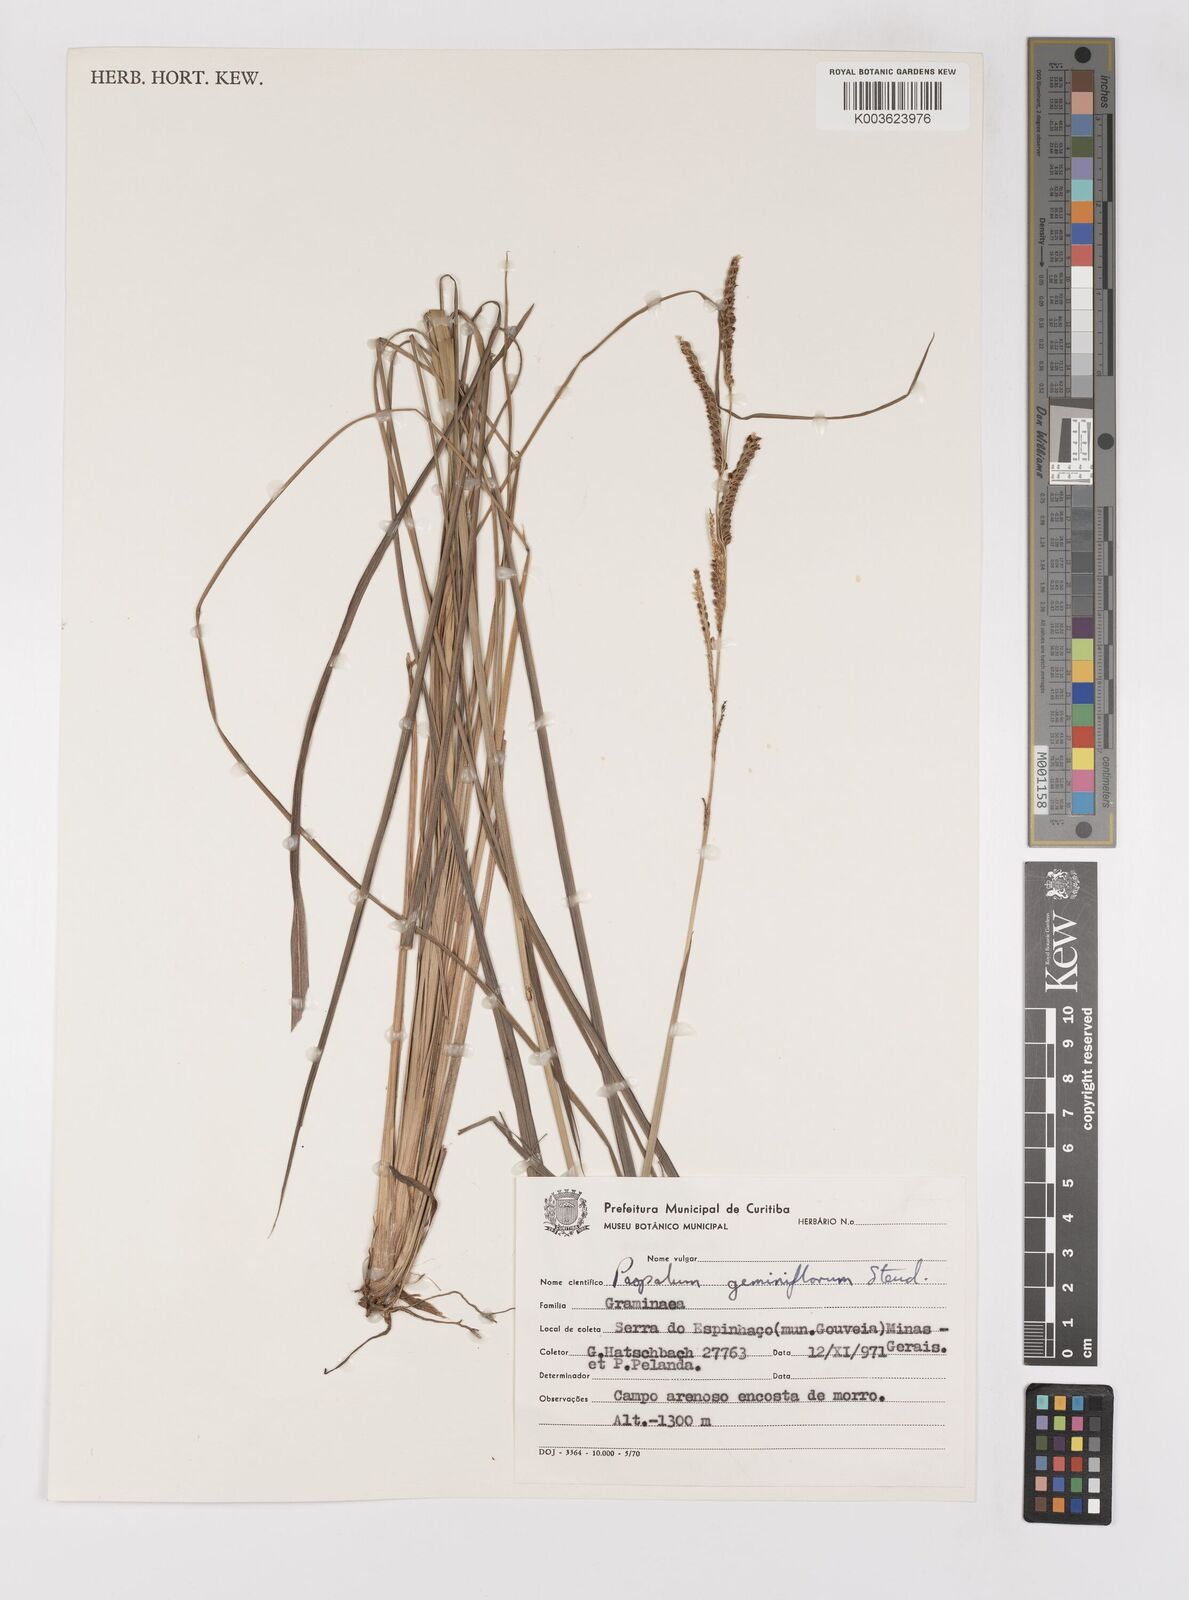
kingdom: Plantae
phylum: Tracheophyta
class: Liliopsida
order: Poales
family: Poaceae
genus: Paspalum
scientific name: Paspalum glaucescens
